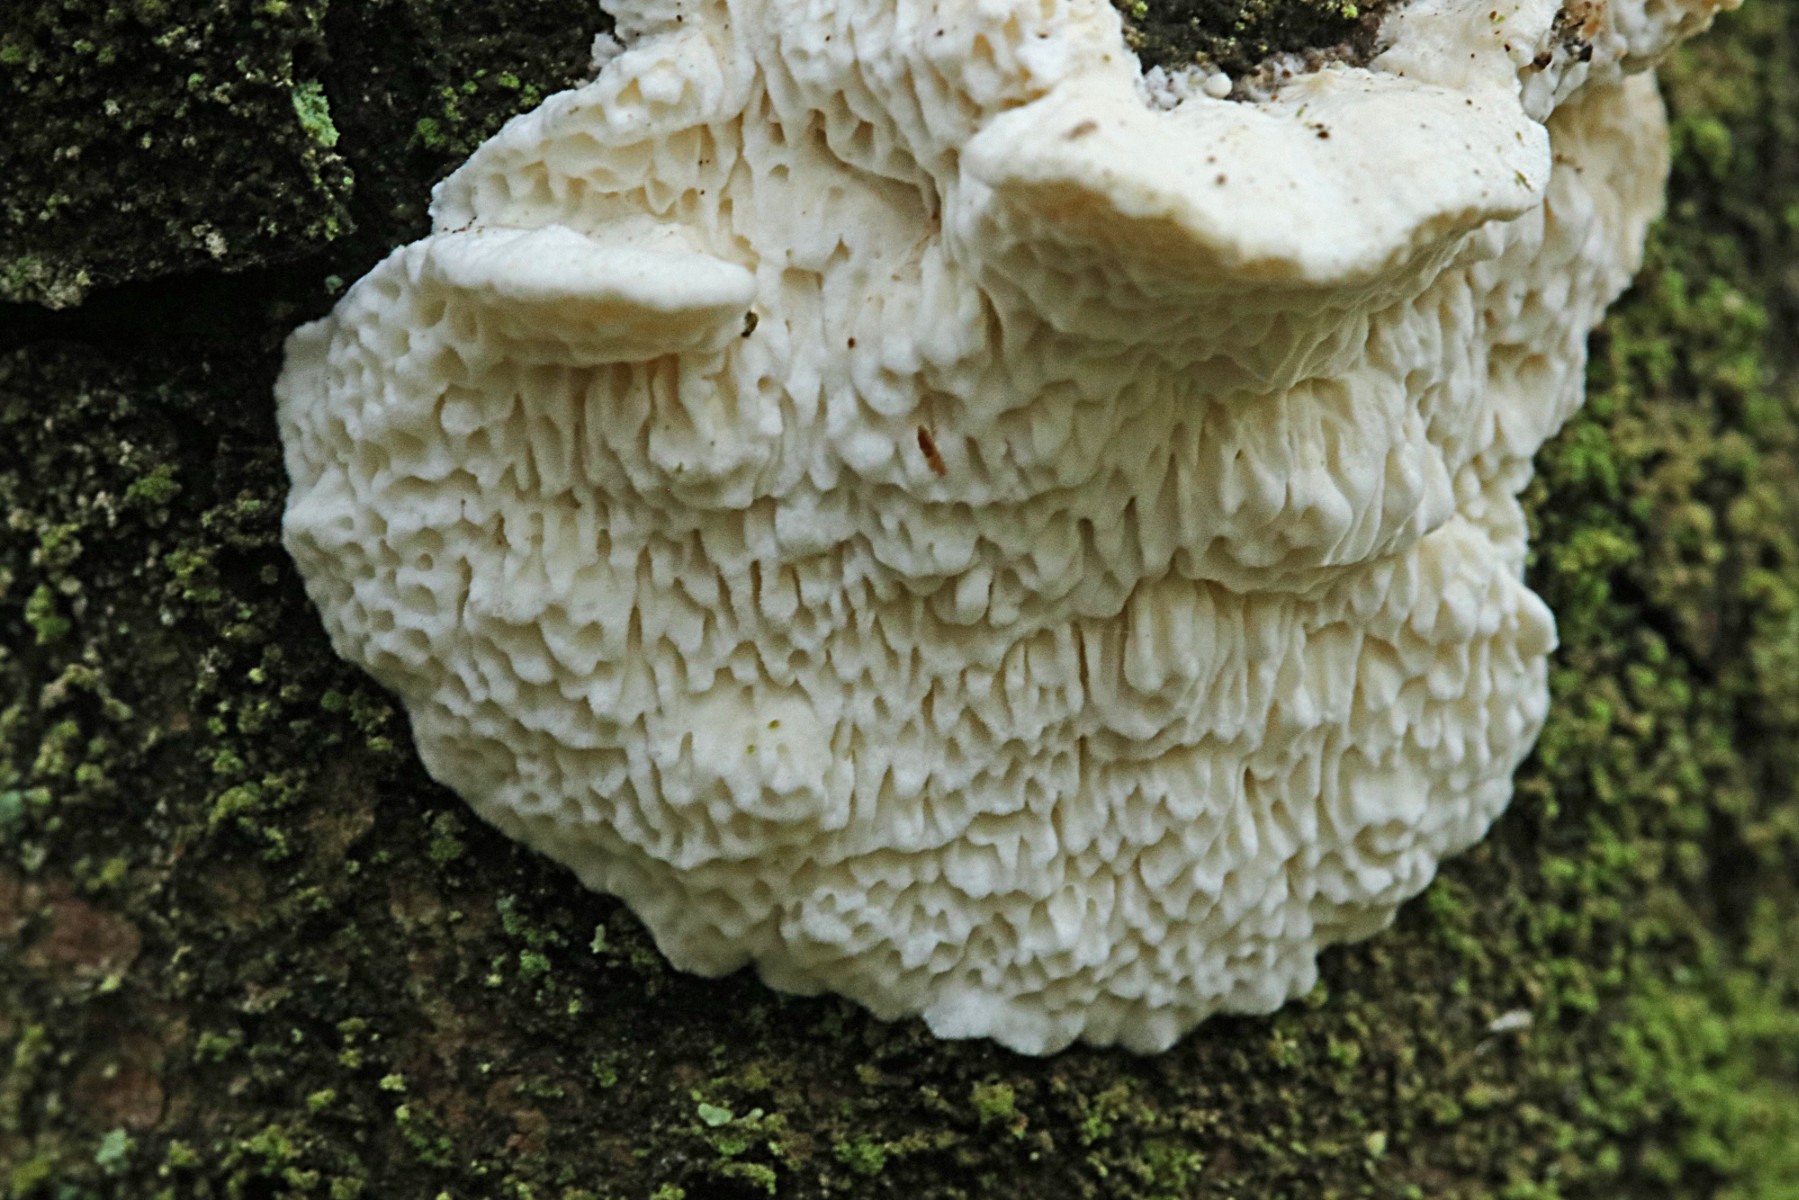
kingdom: Fungi
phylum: Basidiomycota
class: Agaricomycetes
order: Polyporales
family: Fomitopsidaceae
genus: Fomitopsis
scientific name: Fomitopsis
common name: fyrre-skiveporesvamp
